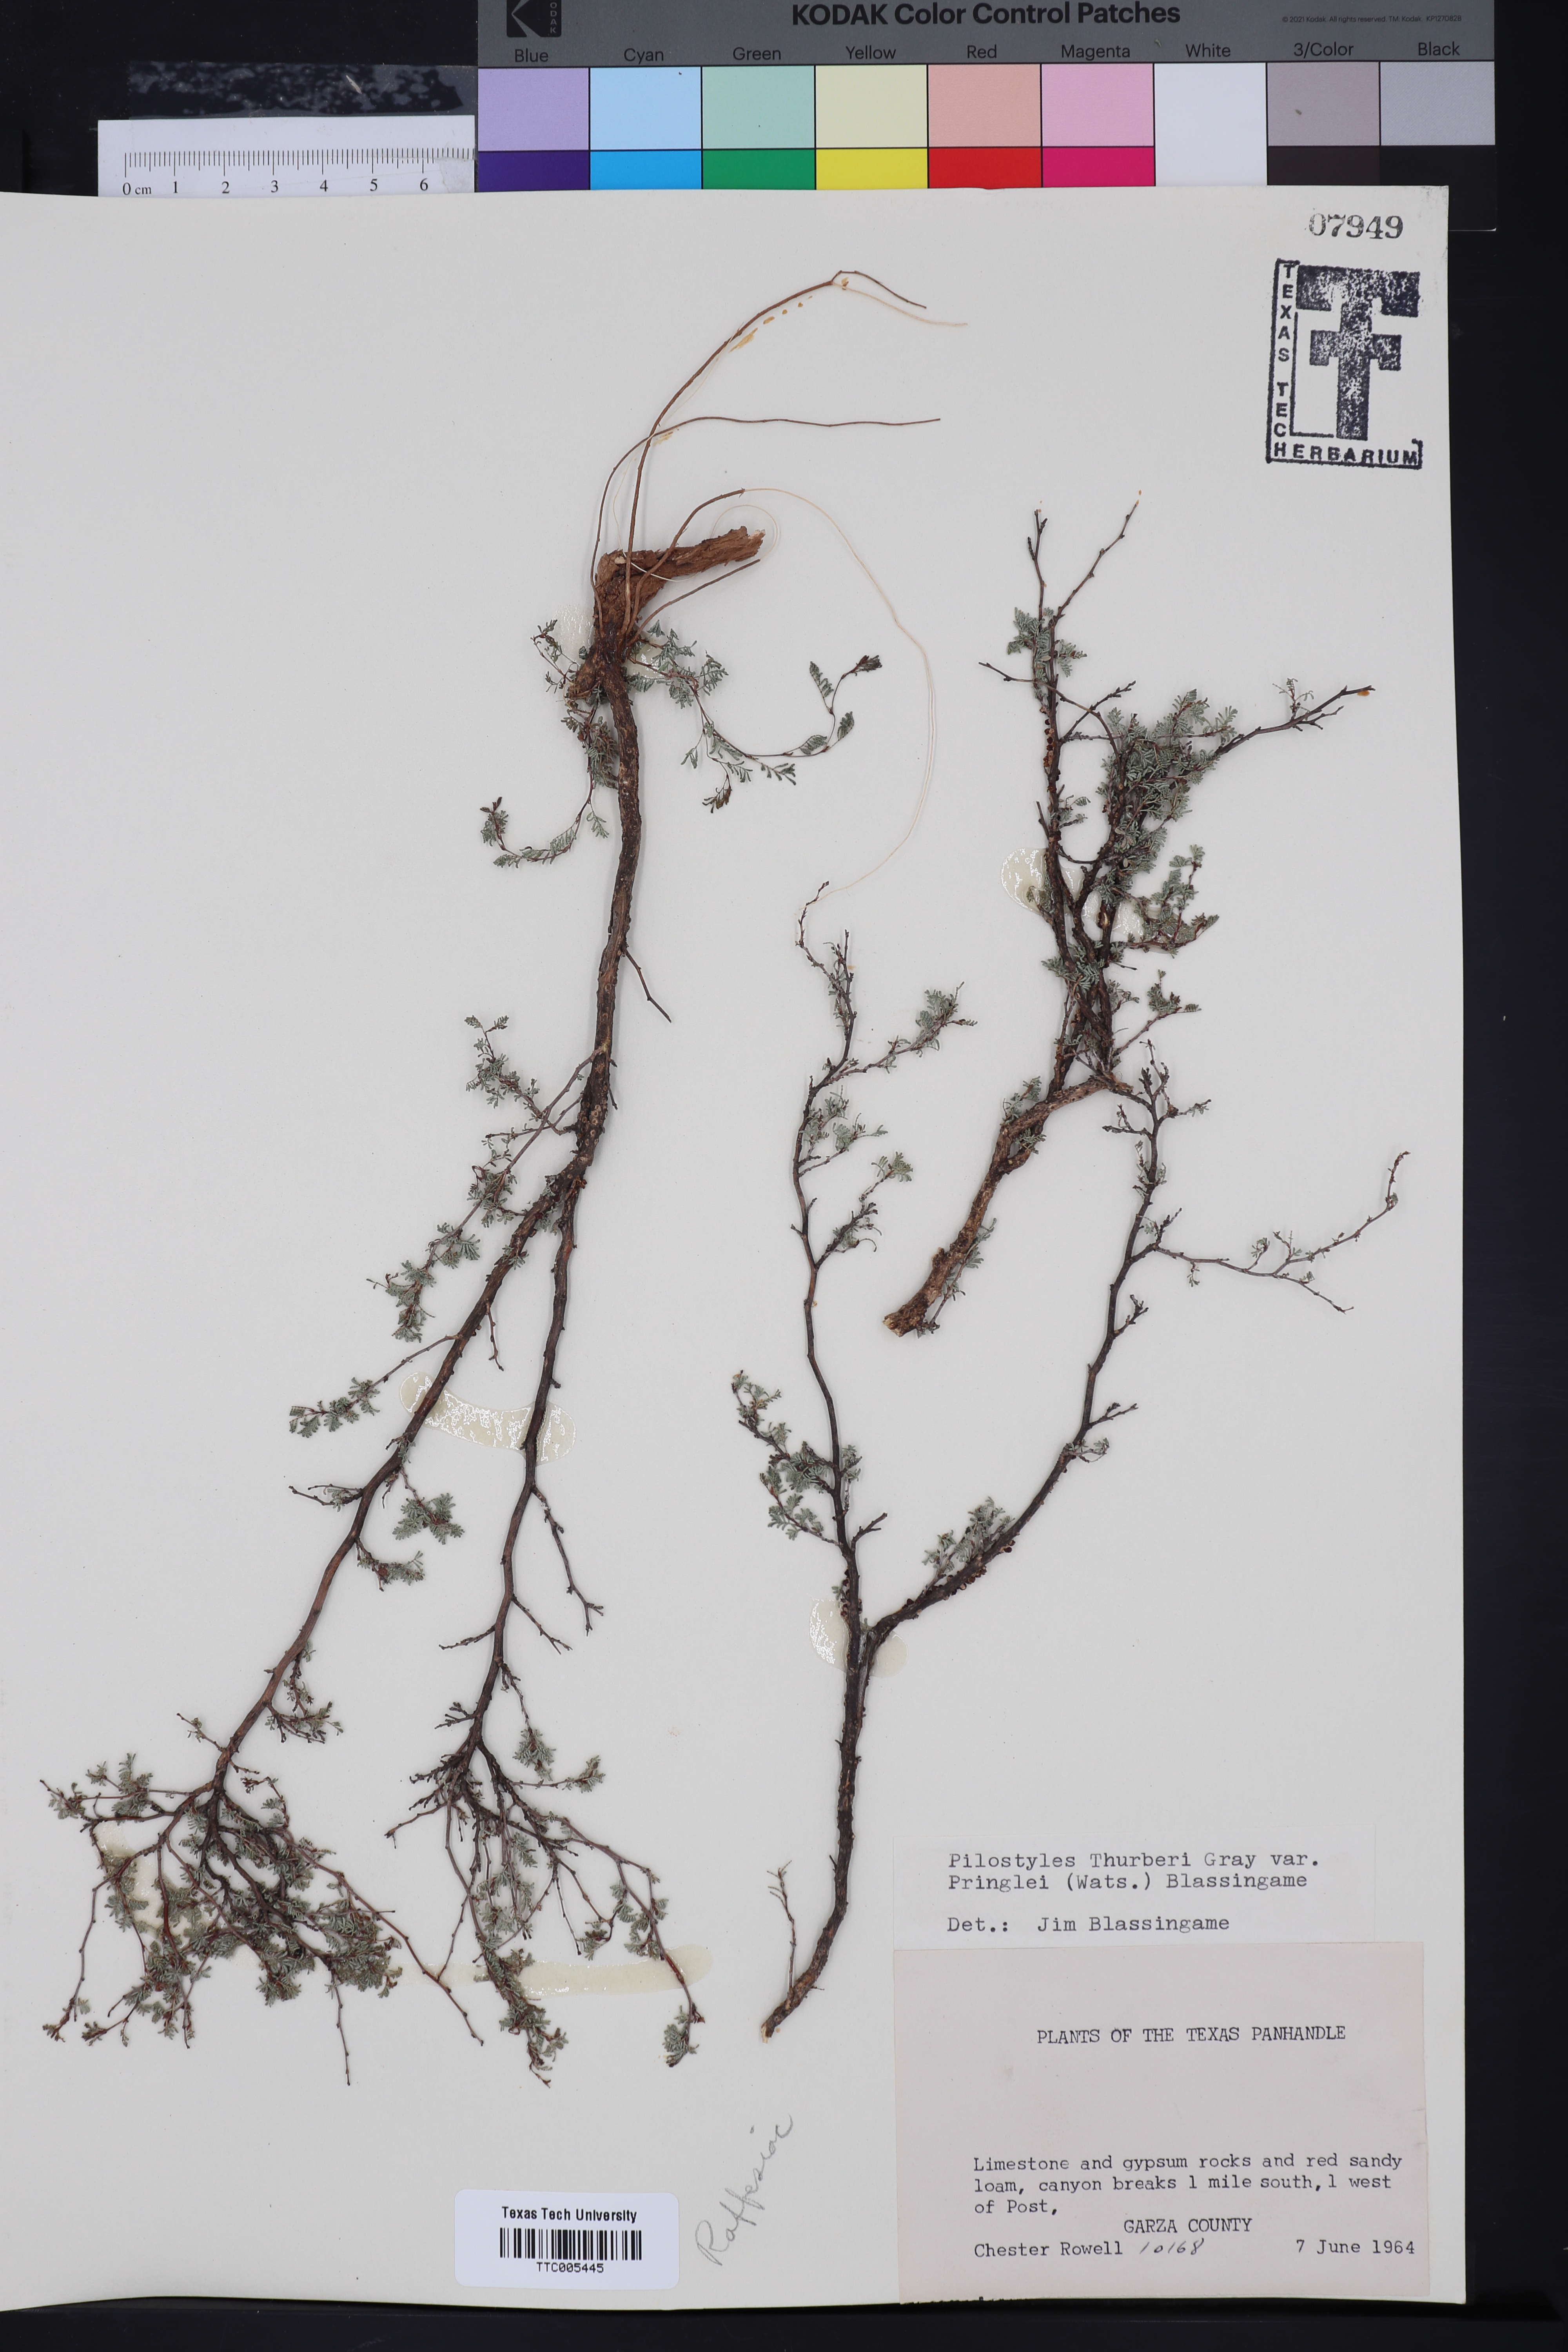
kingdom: Plantae
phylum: Tracheophyta
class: Magnoliopsida
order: Cucurbitales
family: Apodanthaceae
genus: Pilostyles
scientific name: Pilostyles thurberi
